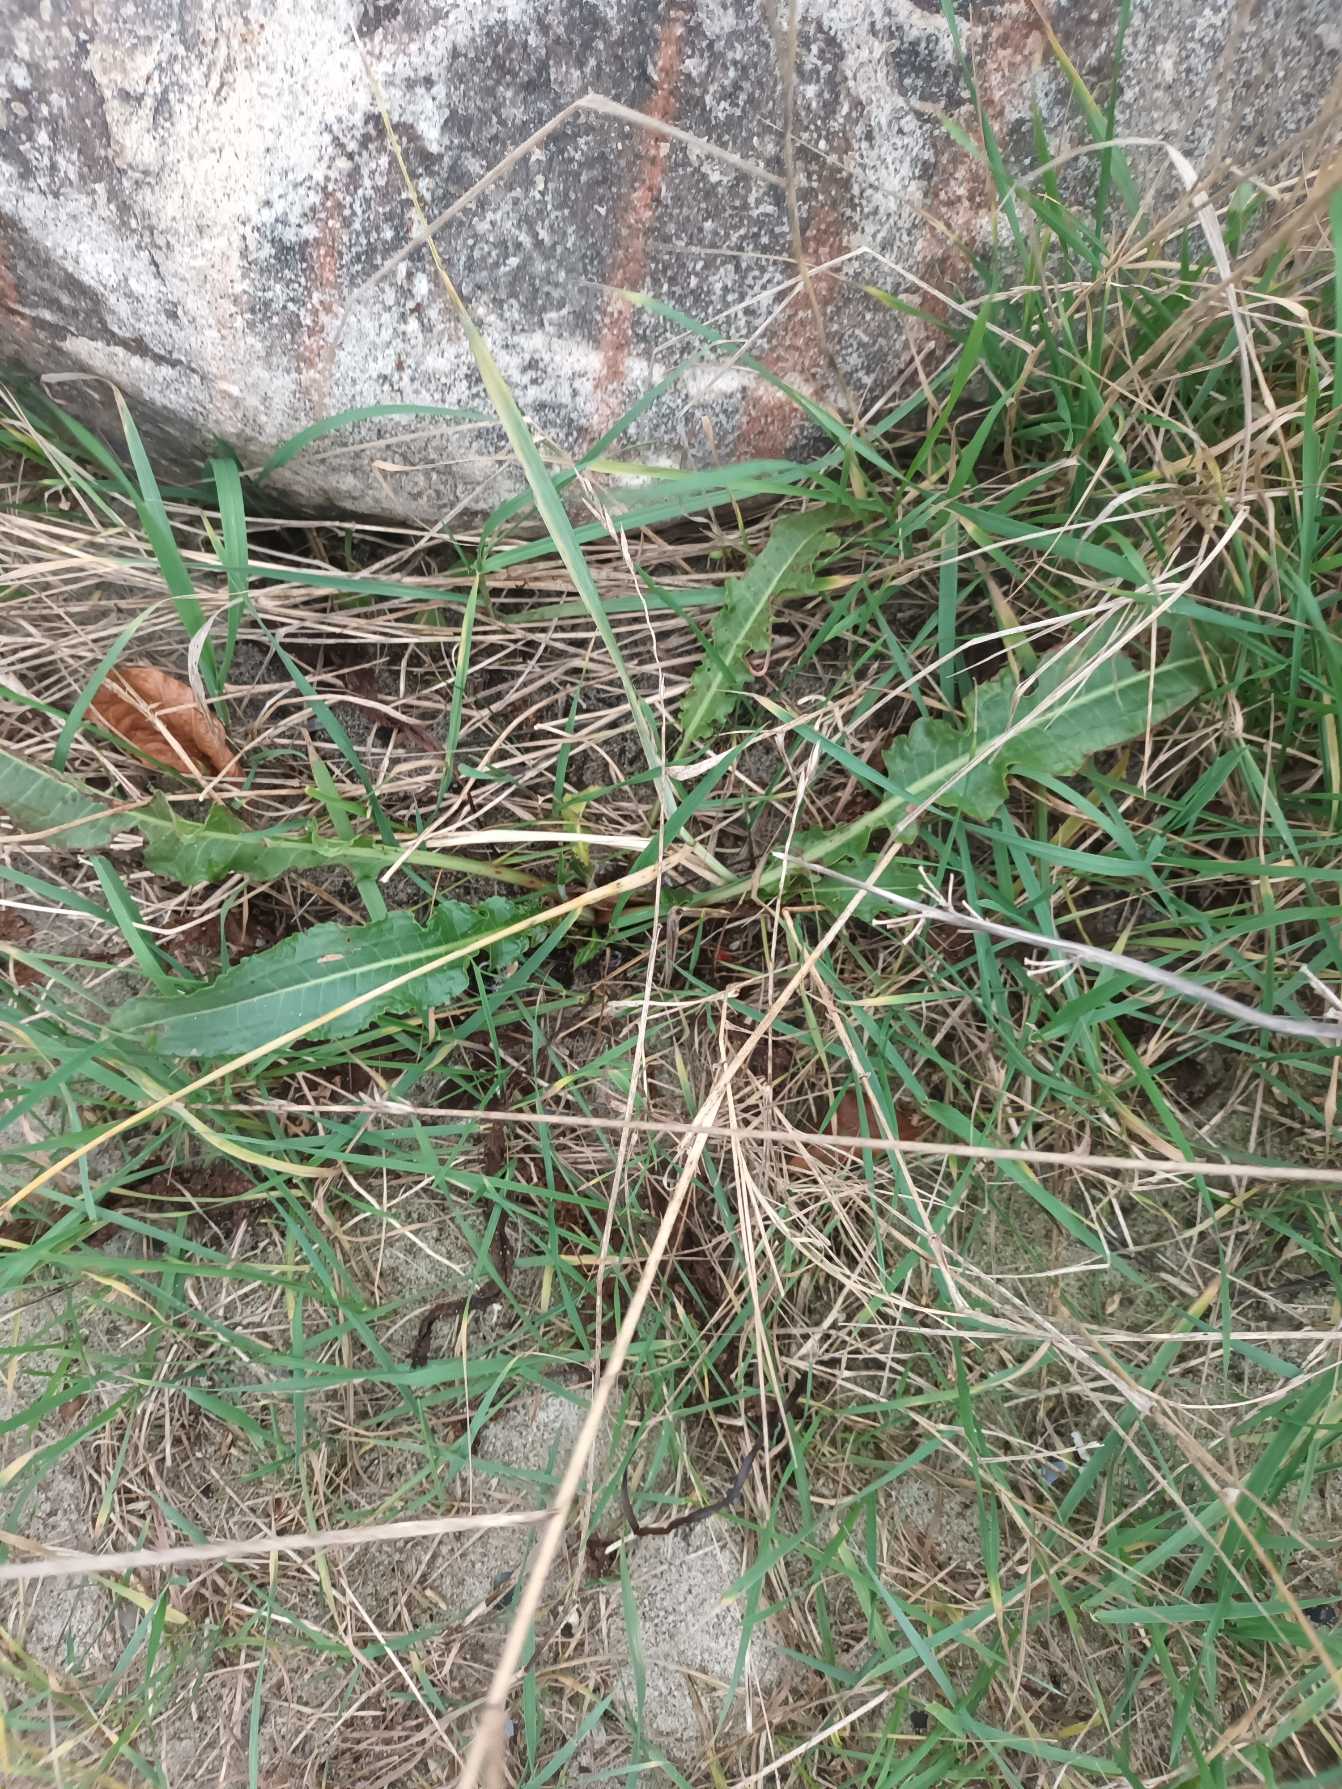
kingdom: Plantae
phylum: Tracheophyta
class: Magnoliopsida
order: Caryophyllales
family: Polygonaceae
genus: Rumex
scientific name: Rumex crispus
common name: Kruset skræppe
